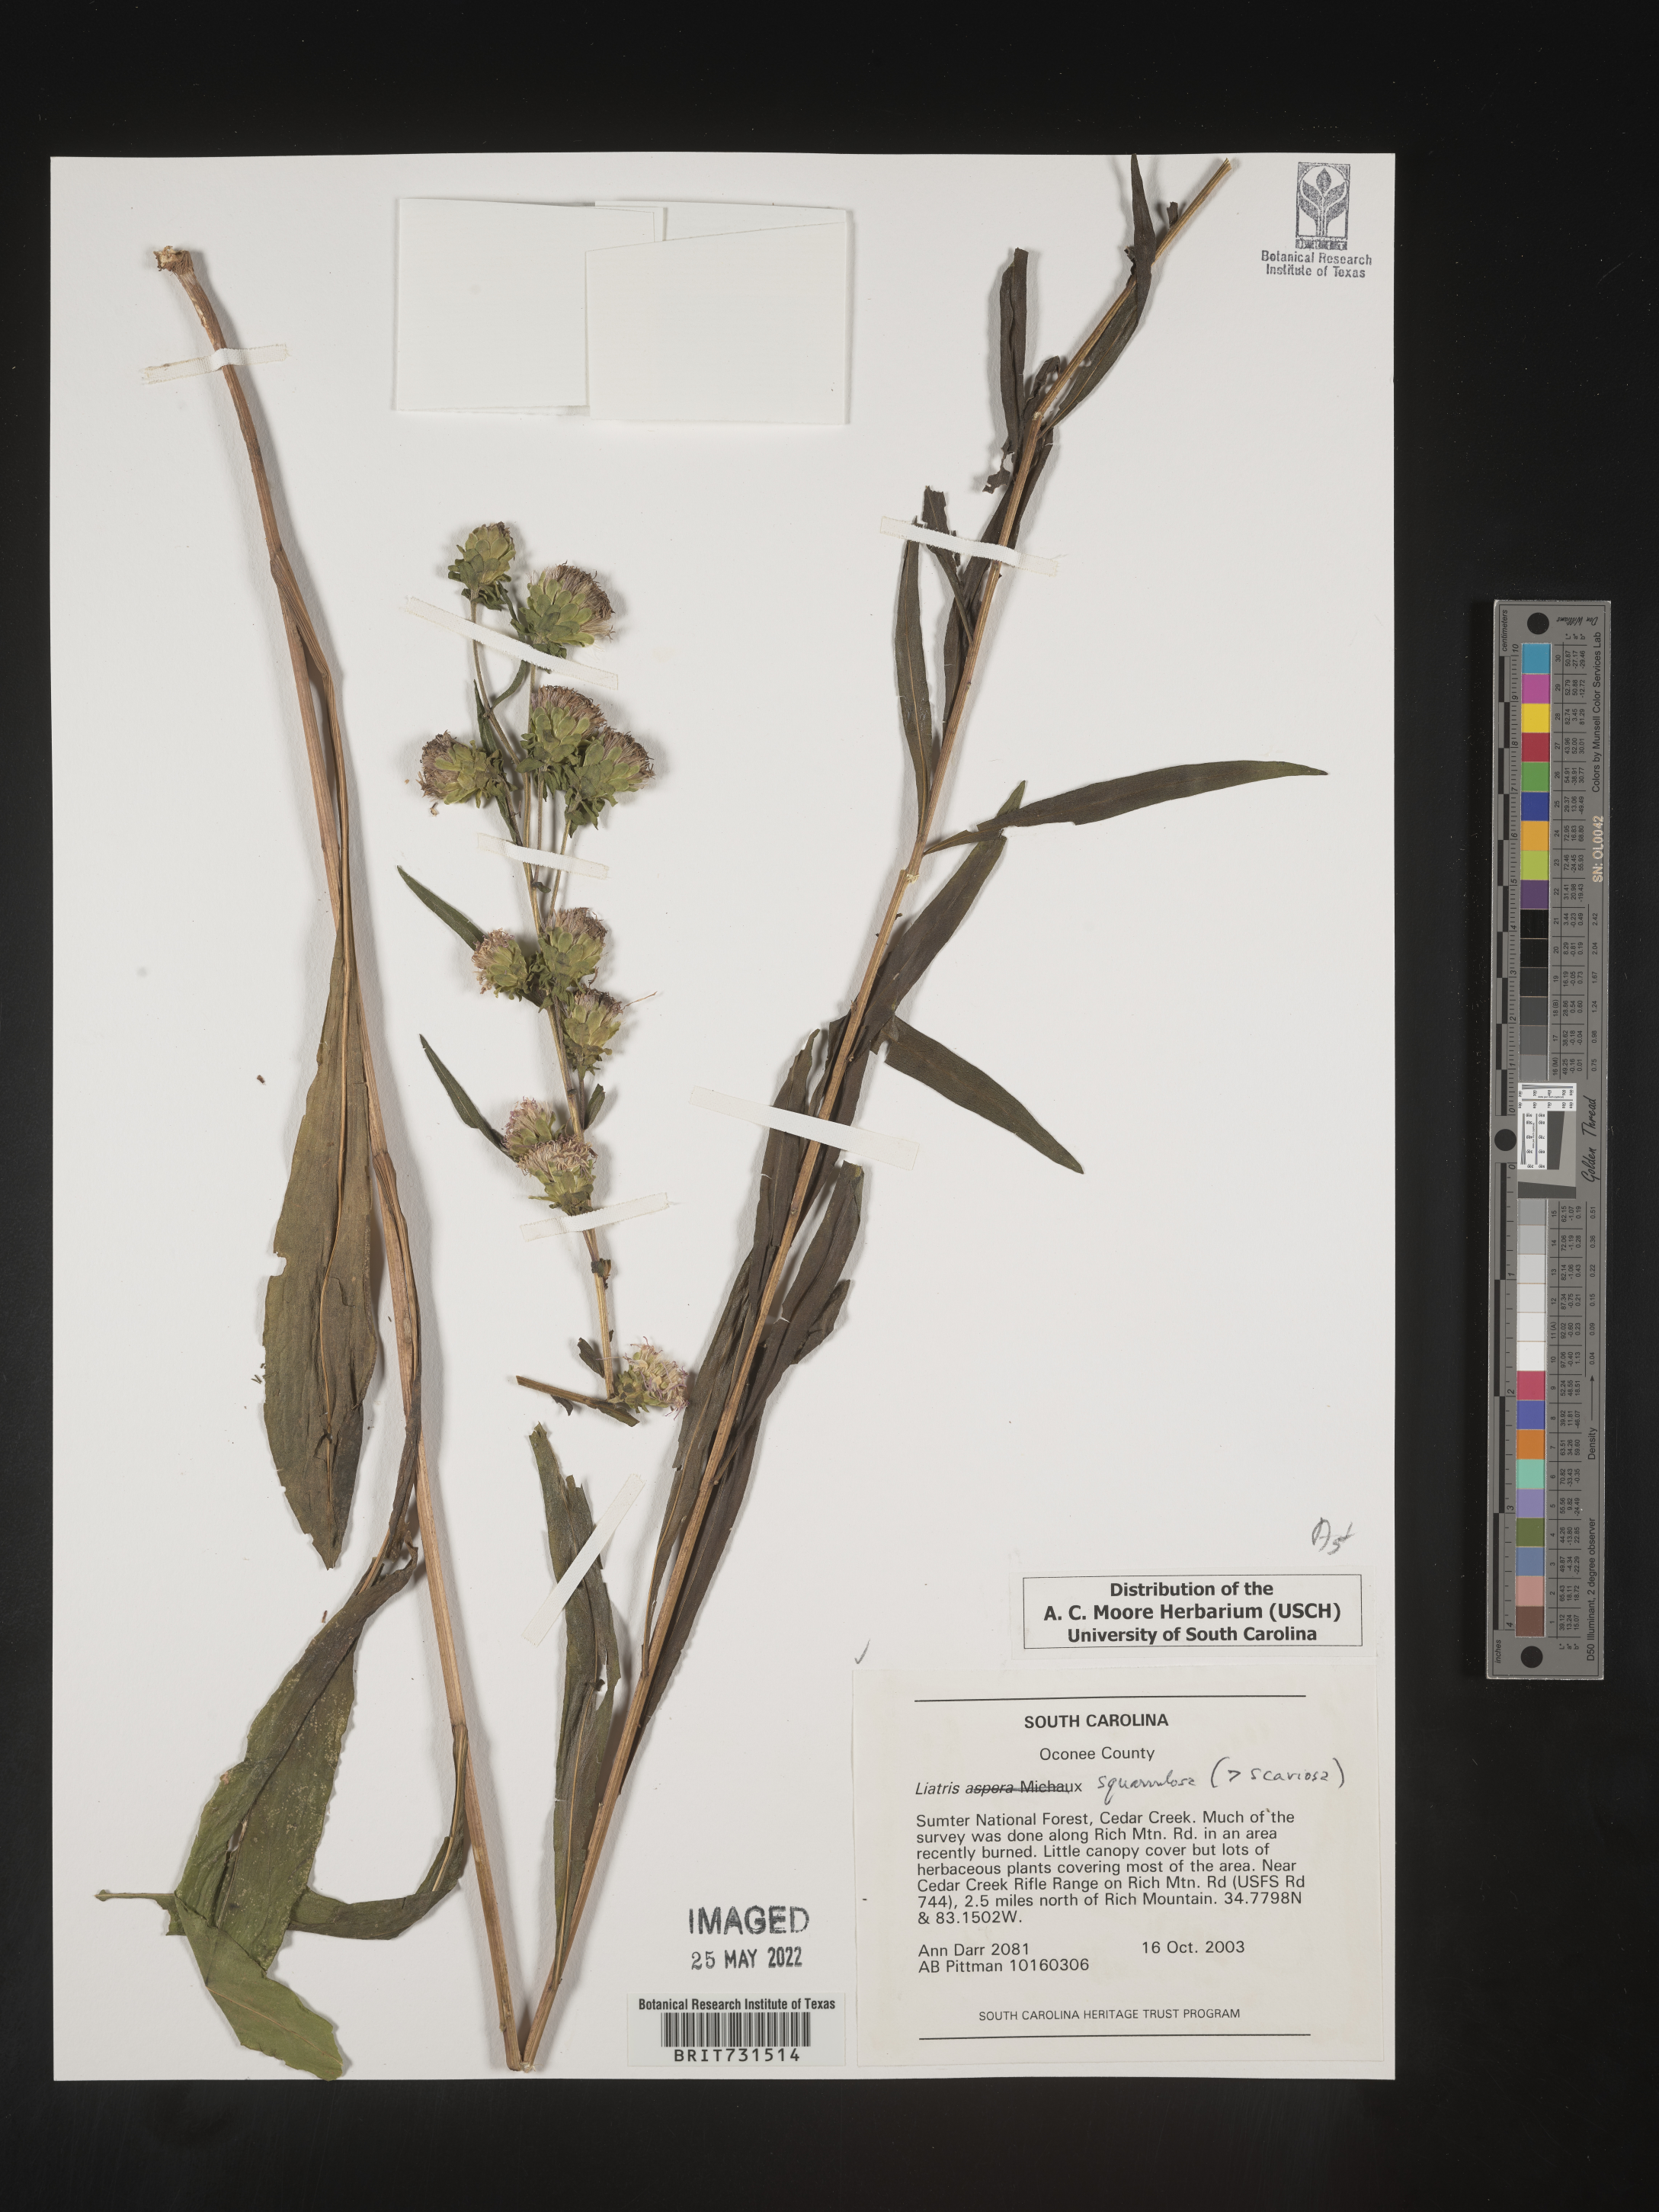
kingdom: Plantae
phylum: Tracheophyta
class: Magnoliopsida
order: Asterales
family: Asteraceae
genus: Liatris
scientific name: Liatris squarrulosa
